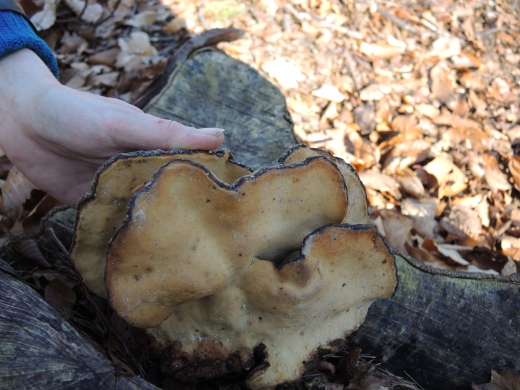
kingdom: Fungi
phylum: Basidiomycota
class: Agaricomycetes
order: Polyporales
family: Ischnodermataceae
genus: Ischnoderma
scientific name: Ischnoderma resinosum
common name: løv-tjæreporesvamp
